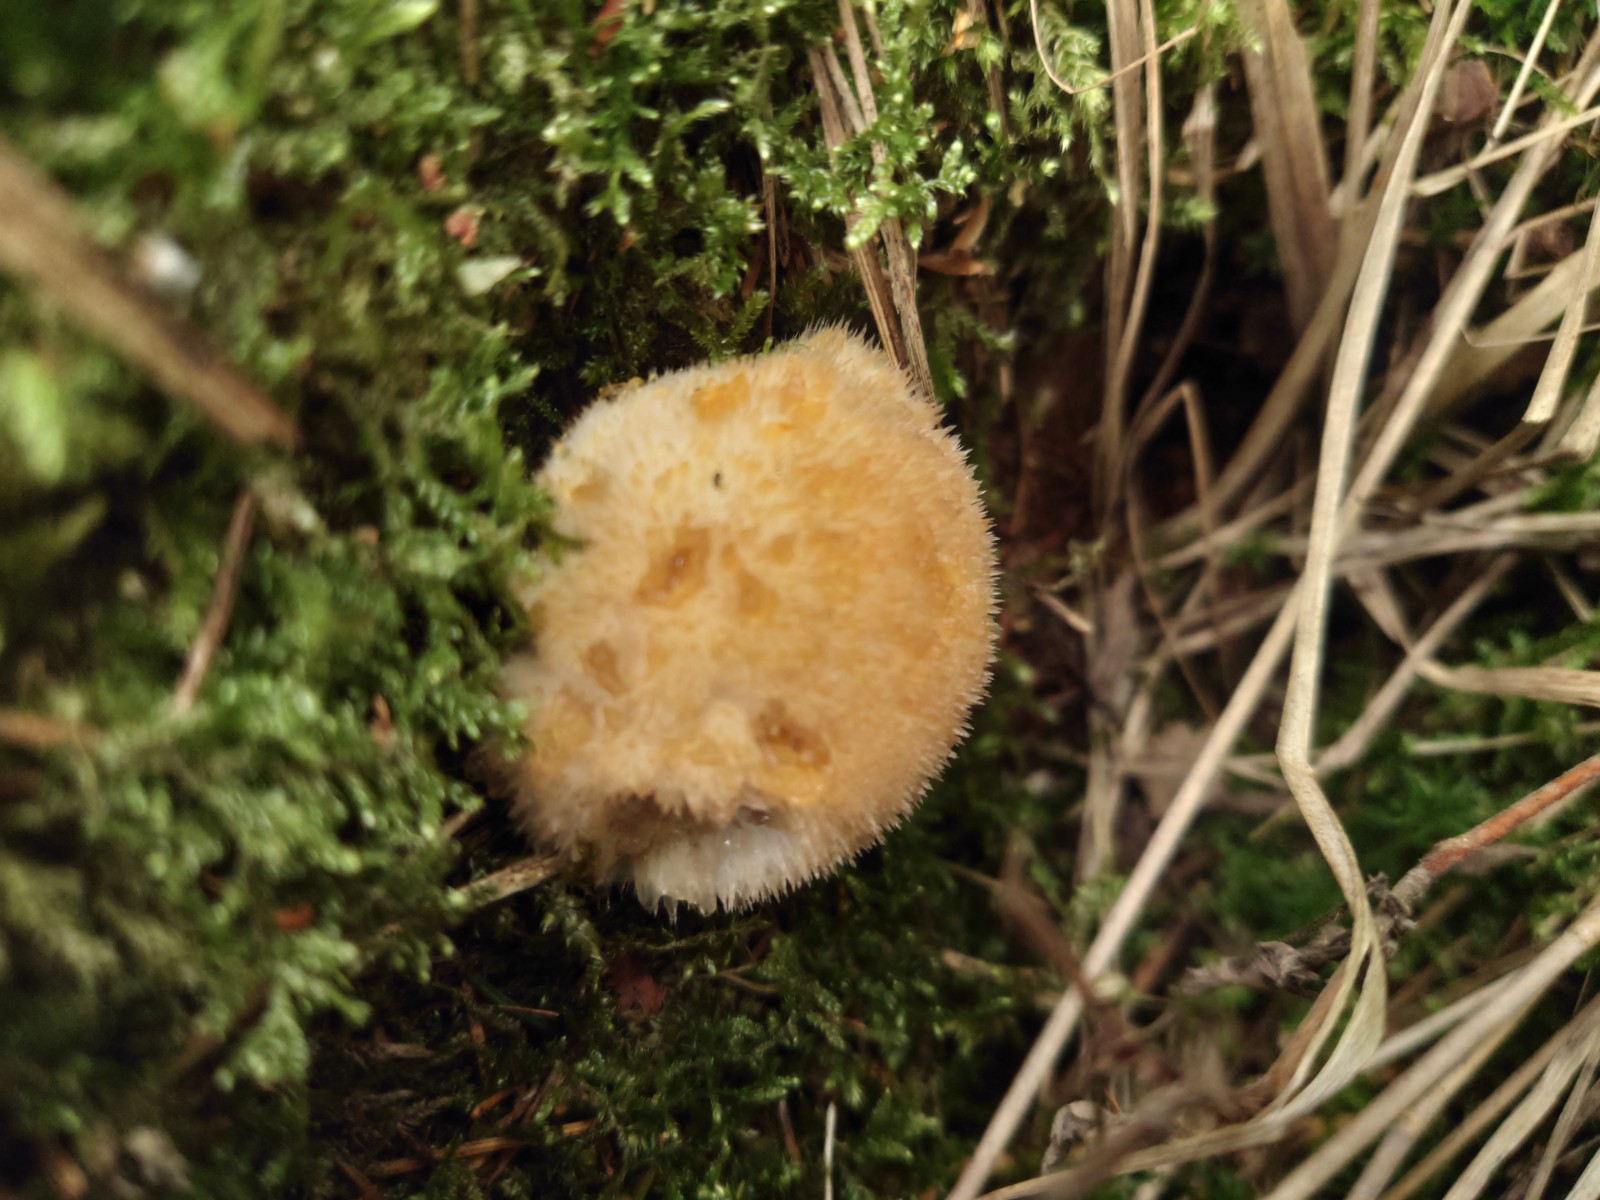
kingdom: Fungi
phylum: Basidiomycota
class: Agaricomycetes
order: Polyporales
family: Dacryobolaceae
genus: Postia
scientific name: Postia ptychogaster
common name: støvende kødporesvamp
